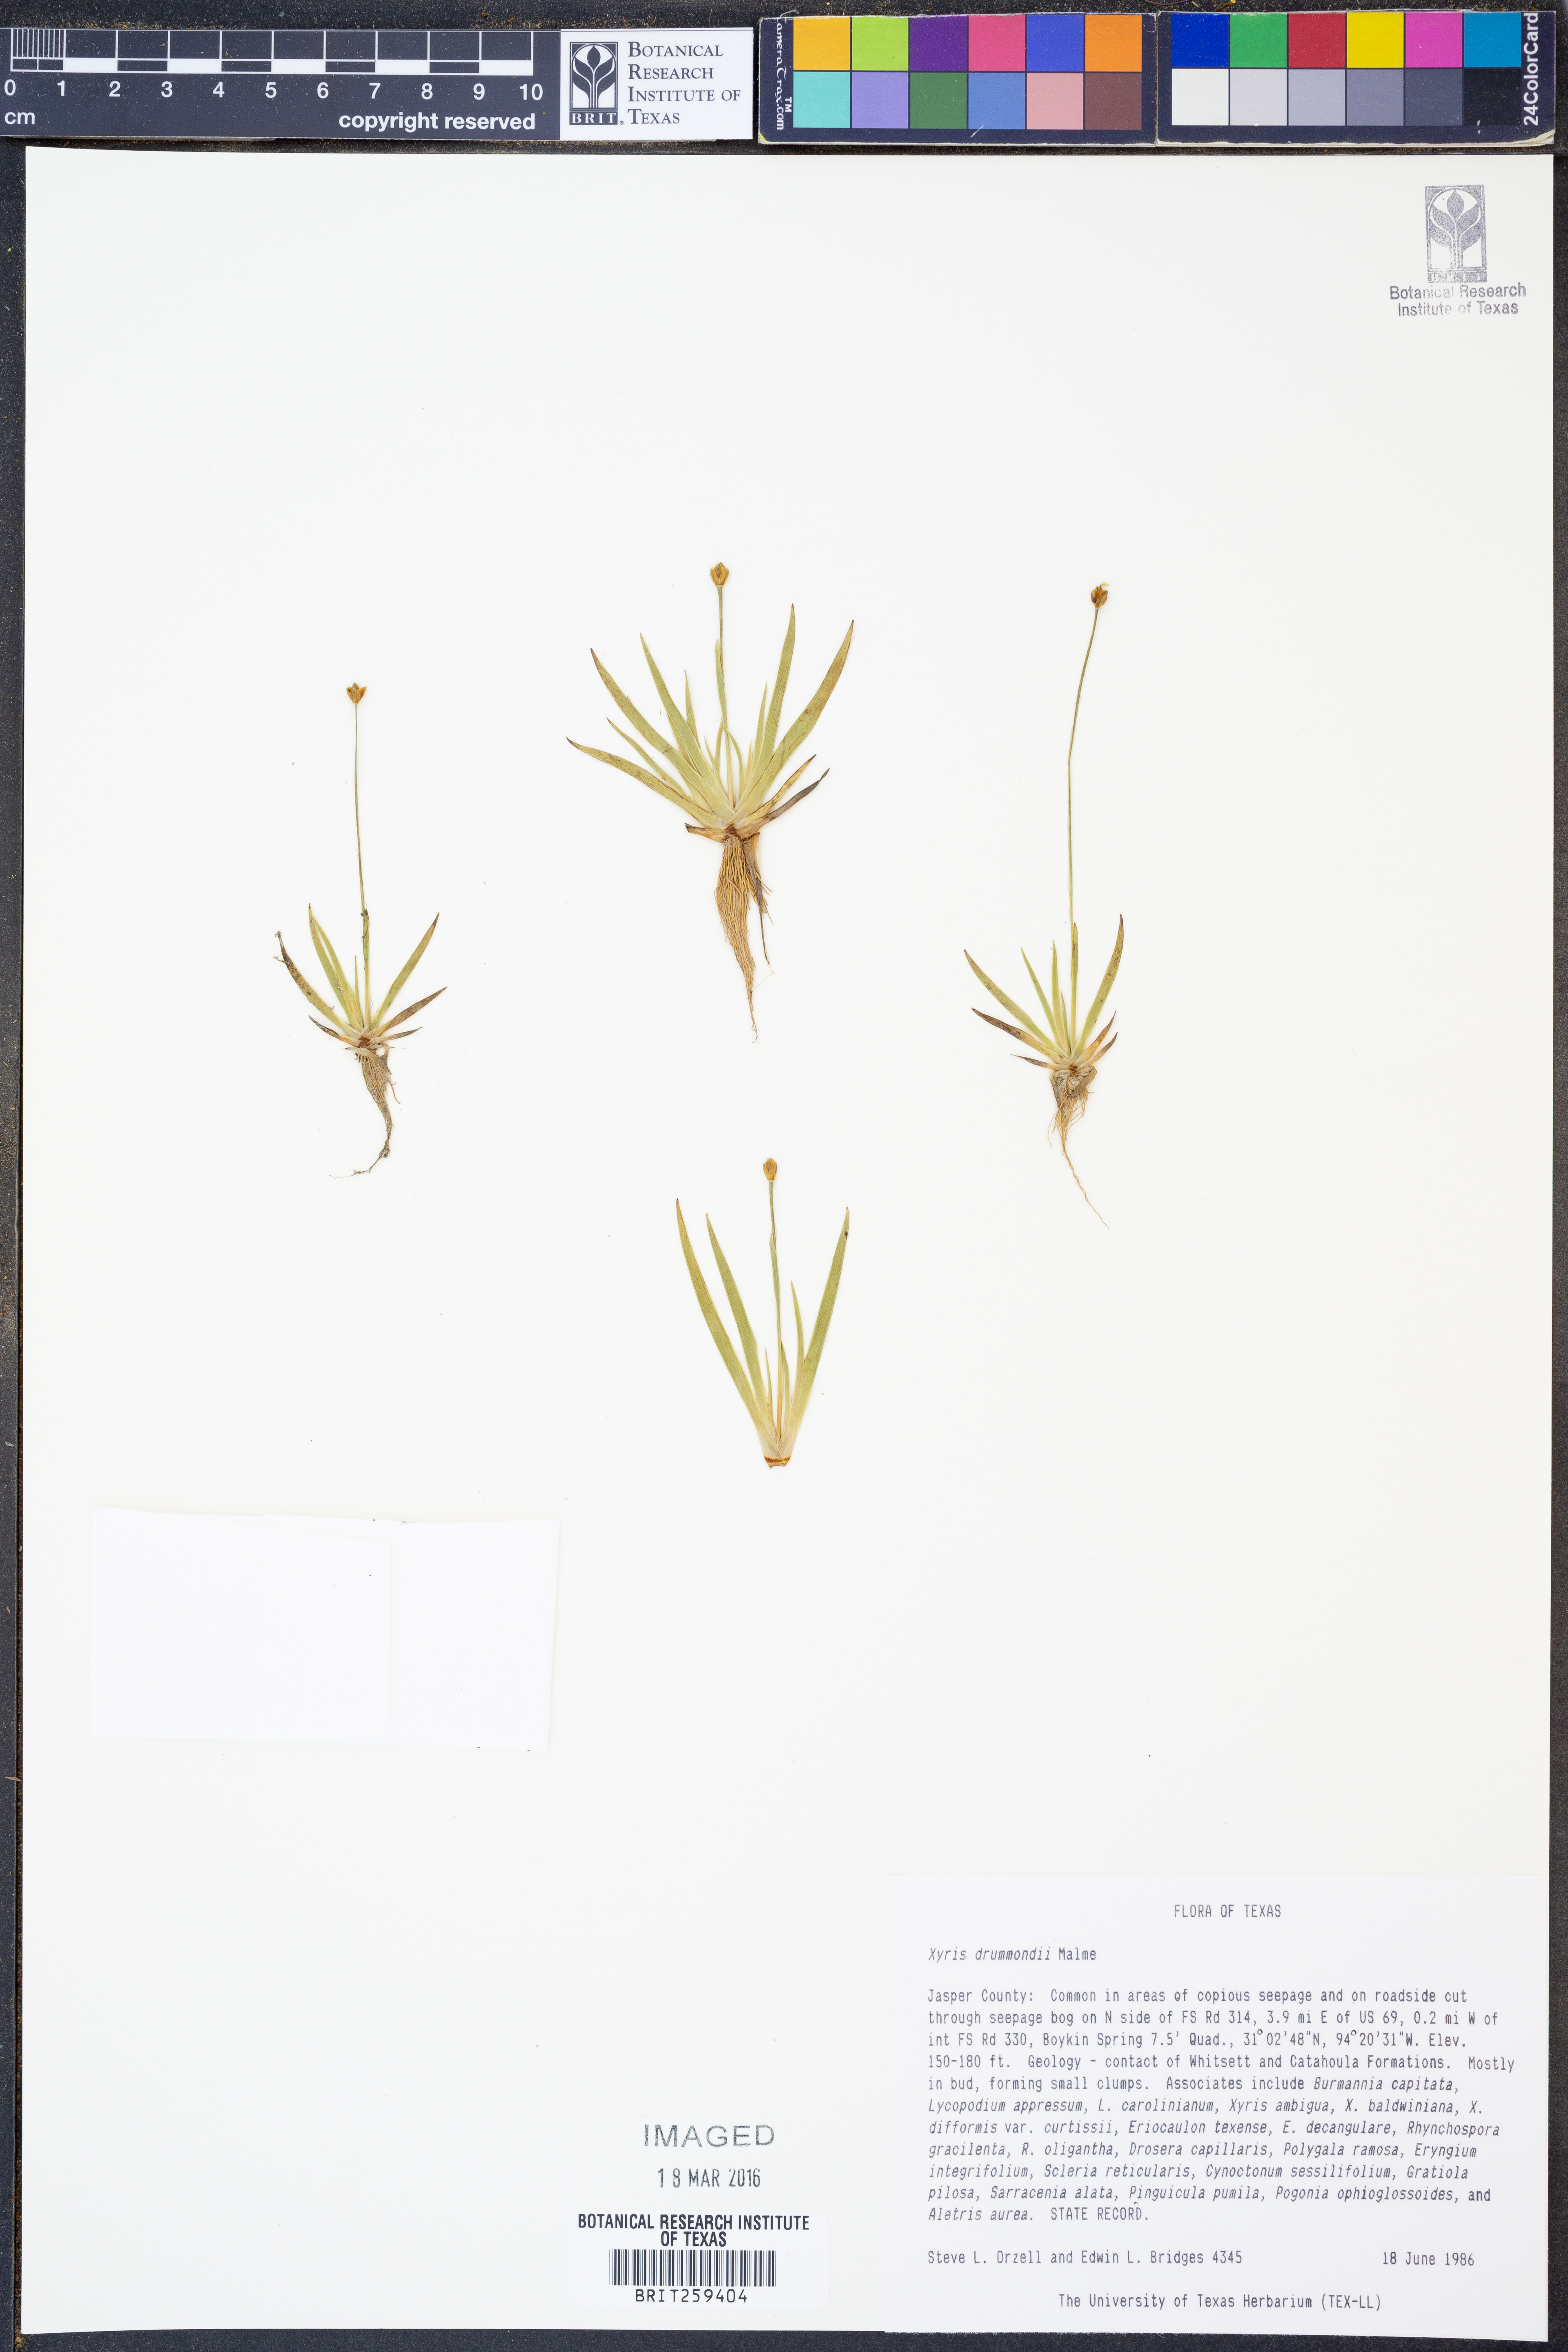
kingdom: Plantae
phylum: Tracheophyta
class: Liliopsida
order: Poales
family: Xyridaceae
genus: Xyris
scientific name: Xyris drummondii
